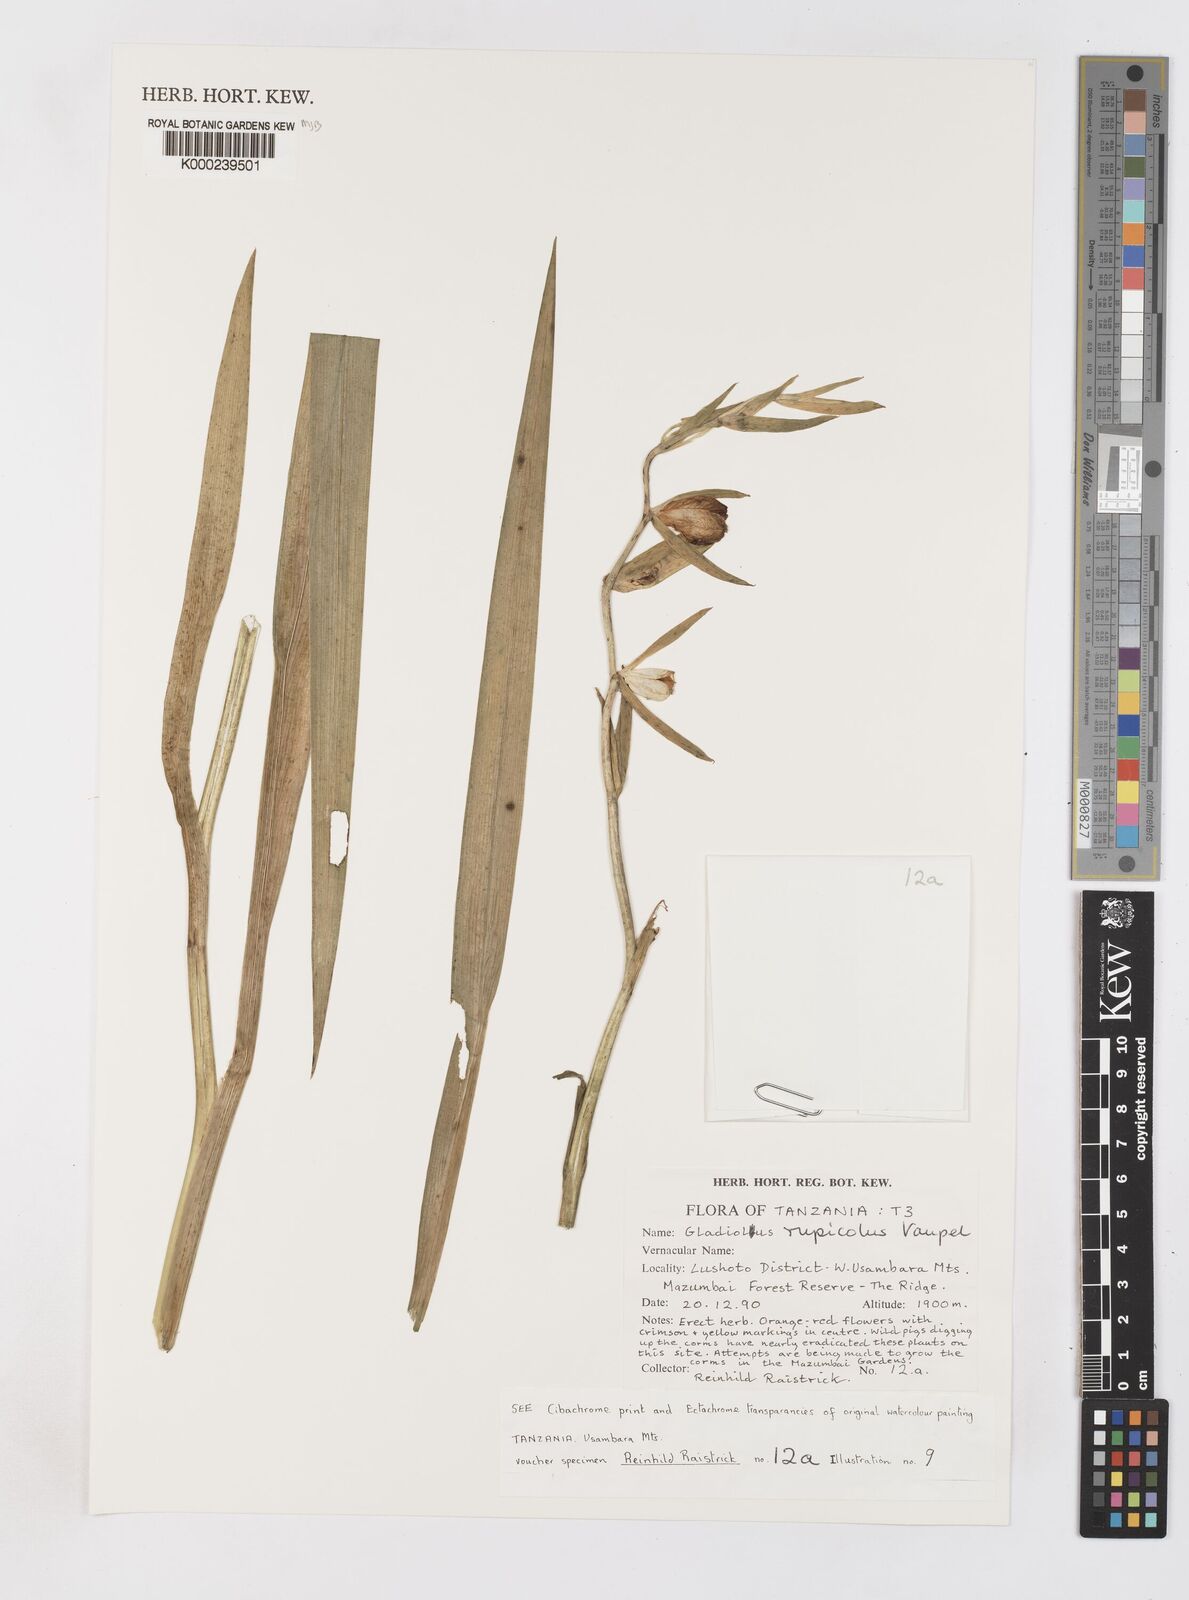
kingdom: Plantae
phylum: Tracheophyta
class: Liliopsida
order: Asparagales
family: Iridaceae
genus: Gladiolus
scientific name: Gladiolus rupicola
